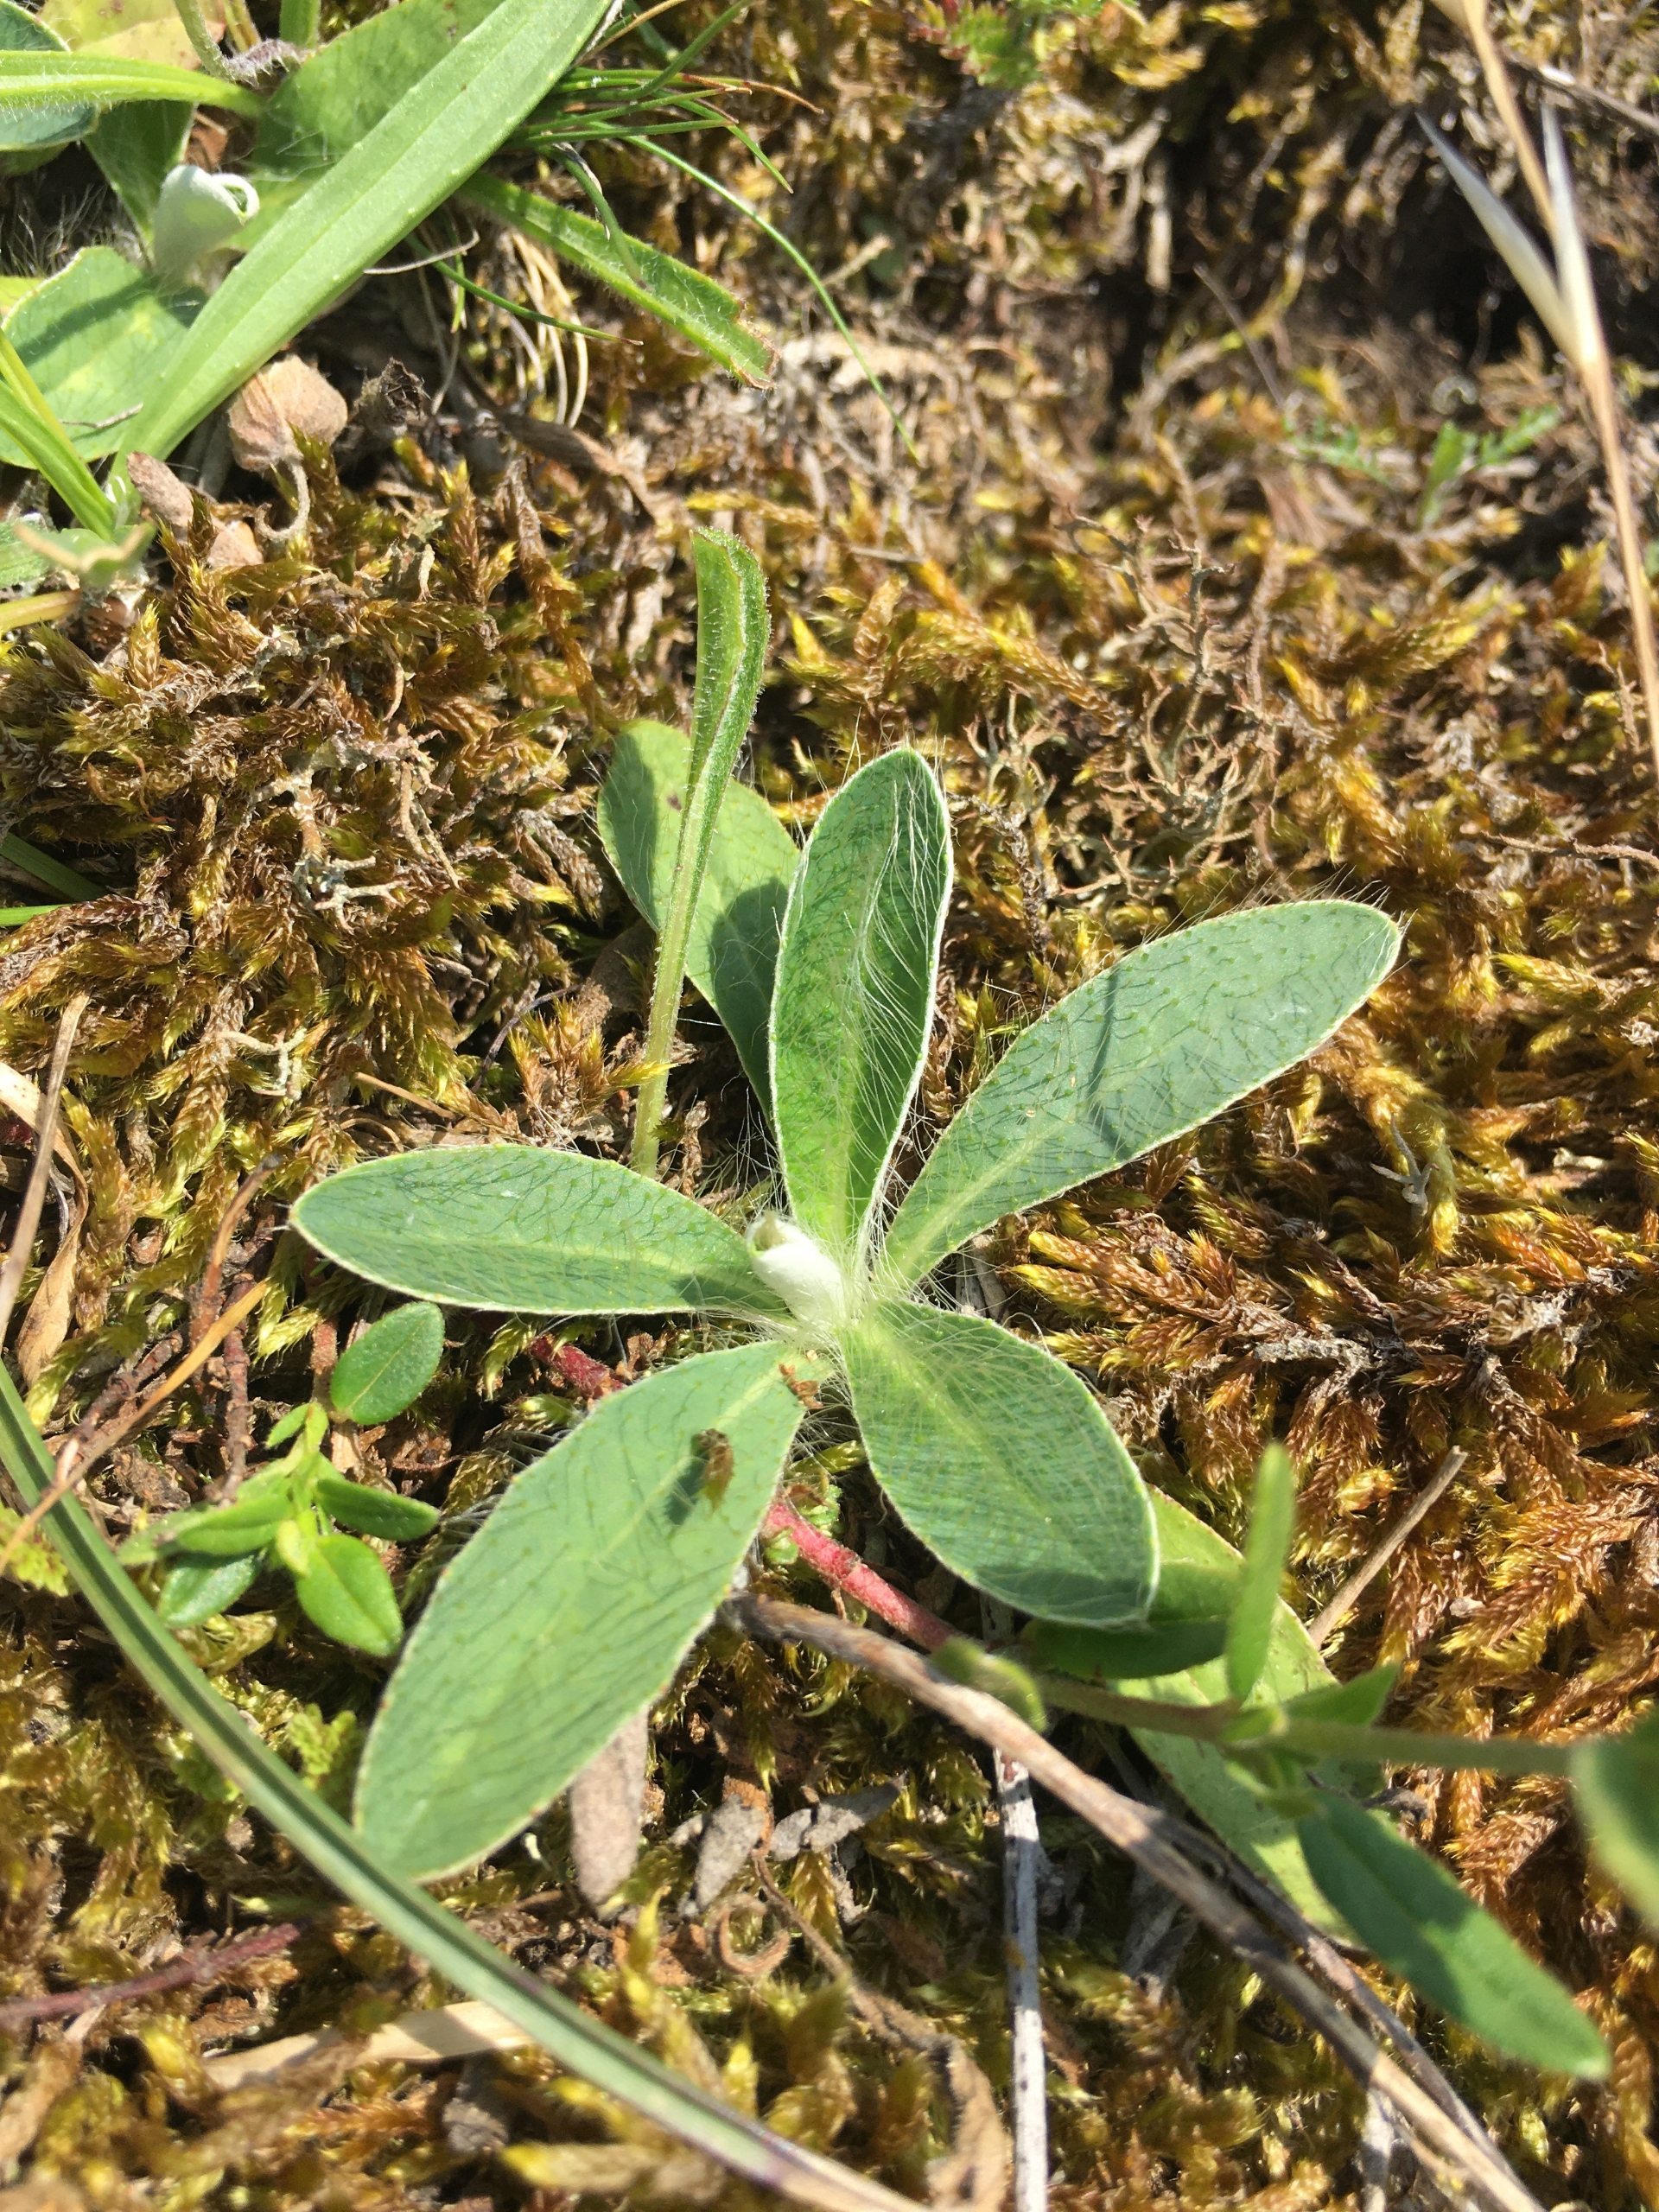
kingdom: Plantae
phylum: Tracheophyta
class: Magnoliopsida
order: Asterales
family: Asteraceae
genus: Pilosella
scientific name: Pilosella officinarum
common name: Håret høgeurt
